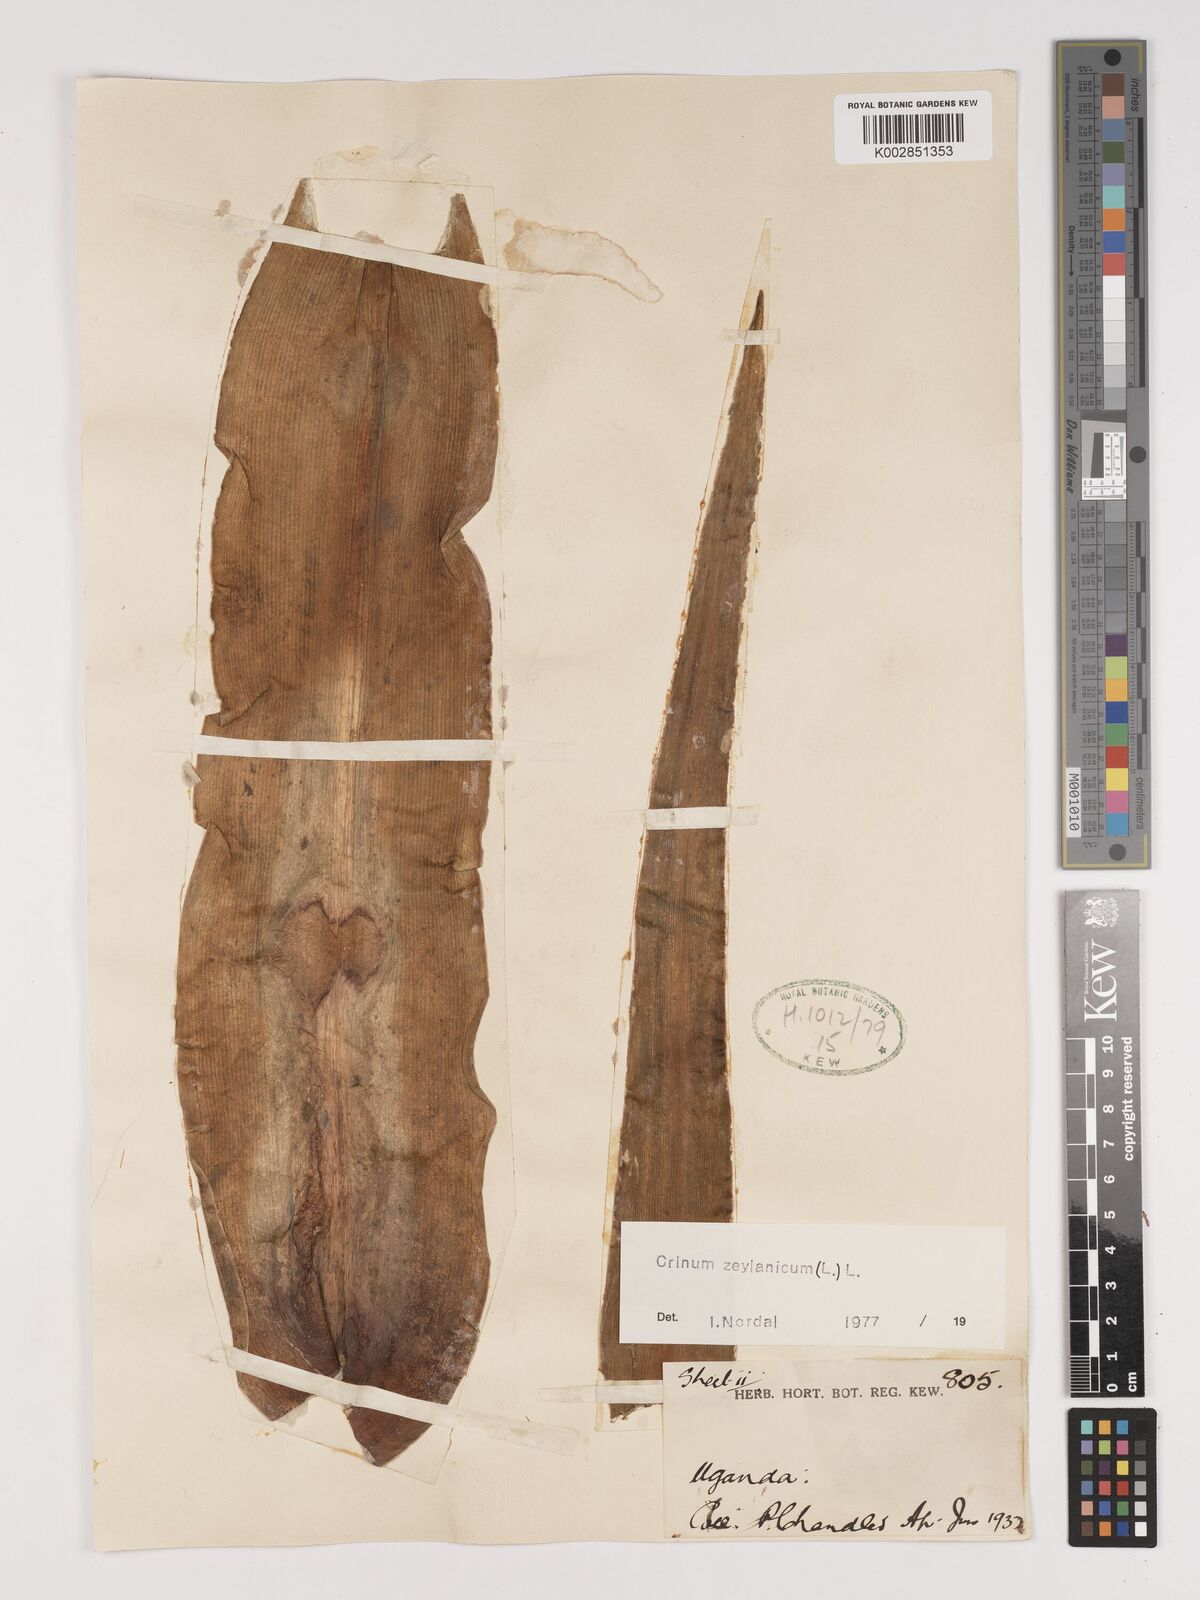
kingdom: Plantae
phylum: Tracheophyta
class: Liliopsida
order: Asparagales
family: Amaryllidaceae
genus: Crinum
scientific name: Crinum zeylanicum
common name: Ceylon swamplily
